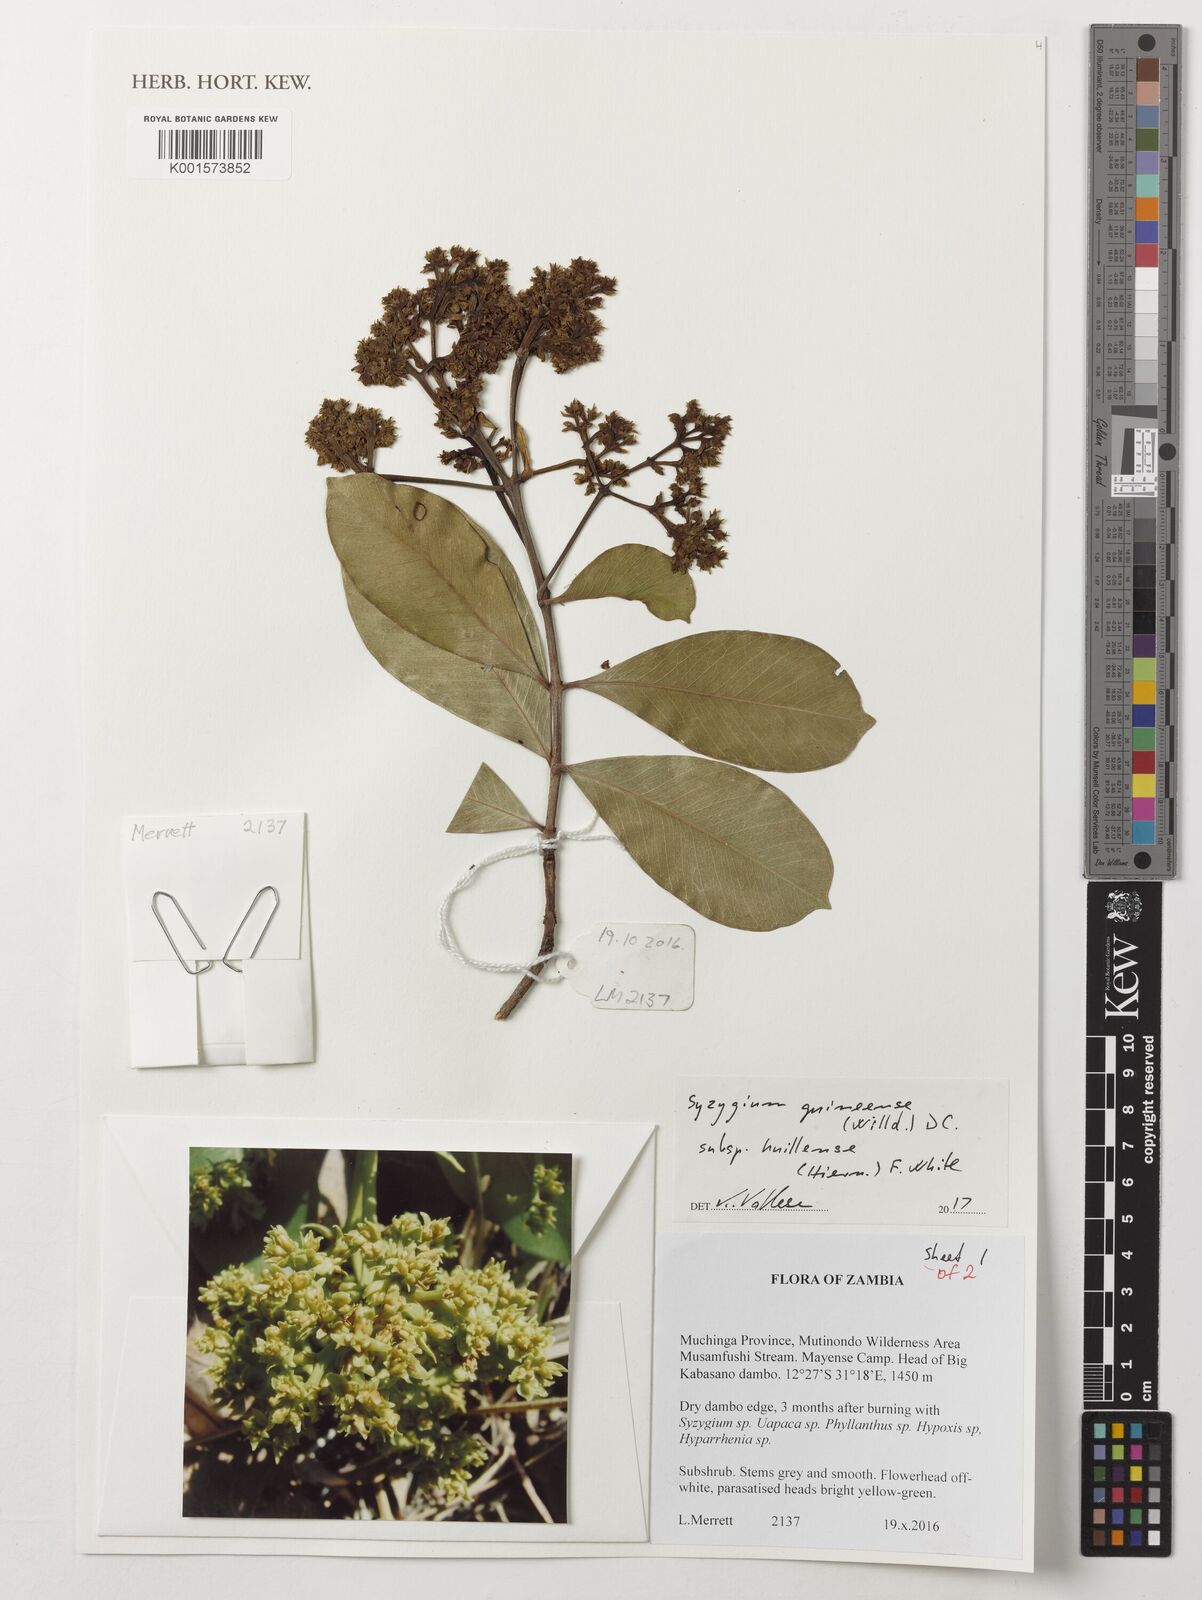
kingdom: Plantae
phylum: Tracheophyta
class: Magnoliopsida
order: Myrtales
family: Myrtaceae
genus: Syzygium
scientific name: Syzygium guineense
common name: Water-pear
